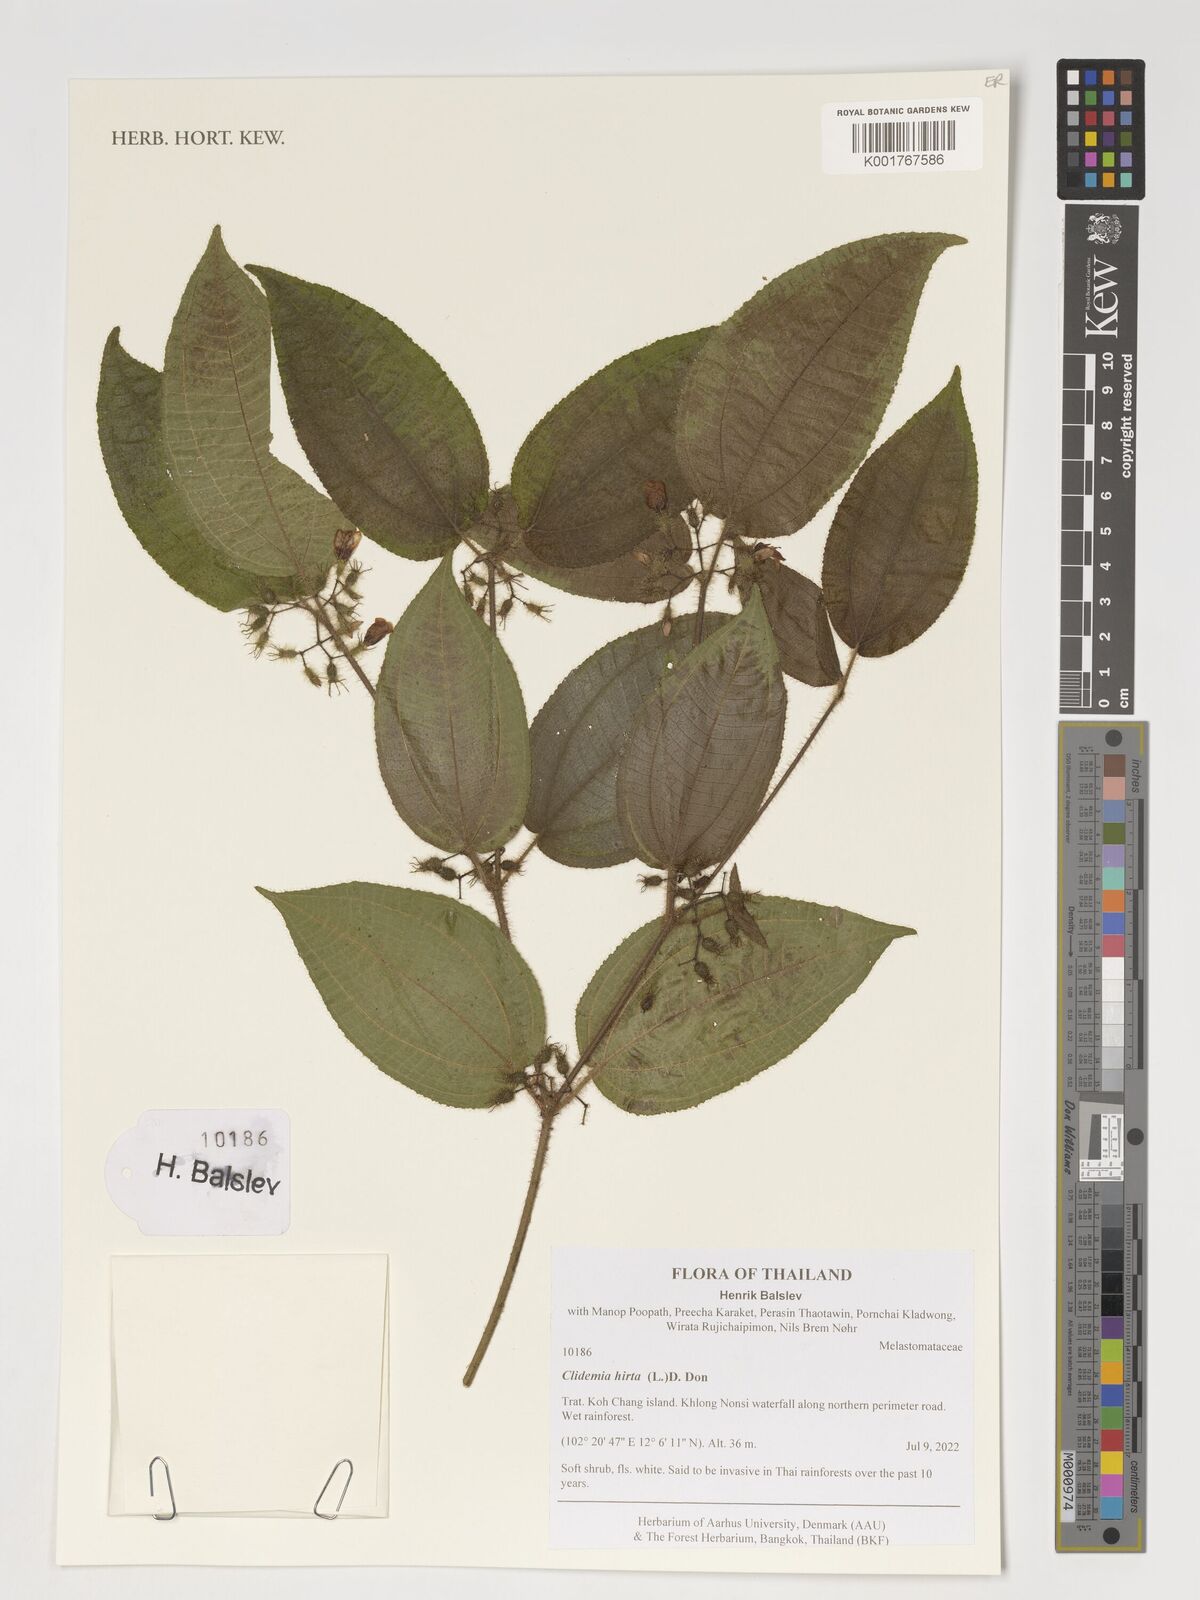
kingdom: Plantae
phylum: Tracheophyta
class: Magnoliopsida
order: Myrtales
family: Melastomataceae
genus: Miconia
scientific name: Miconia crenata
